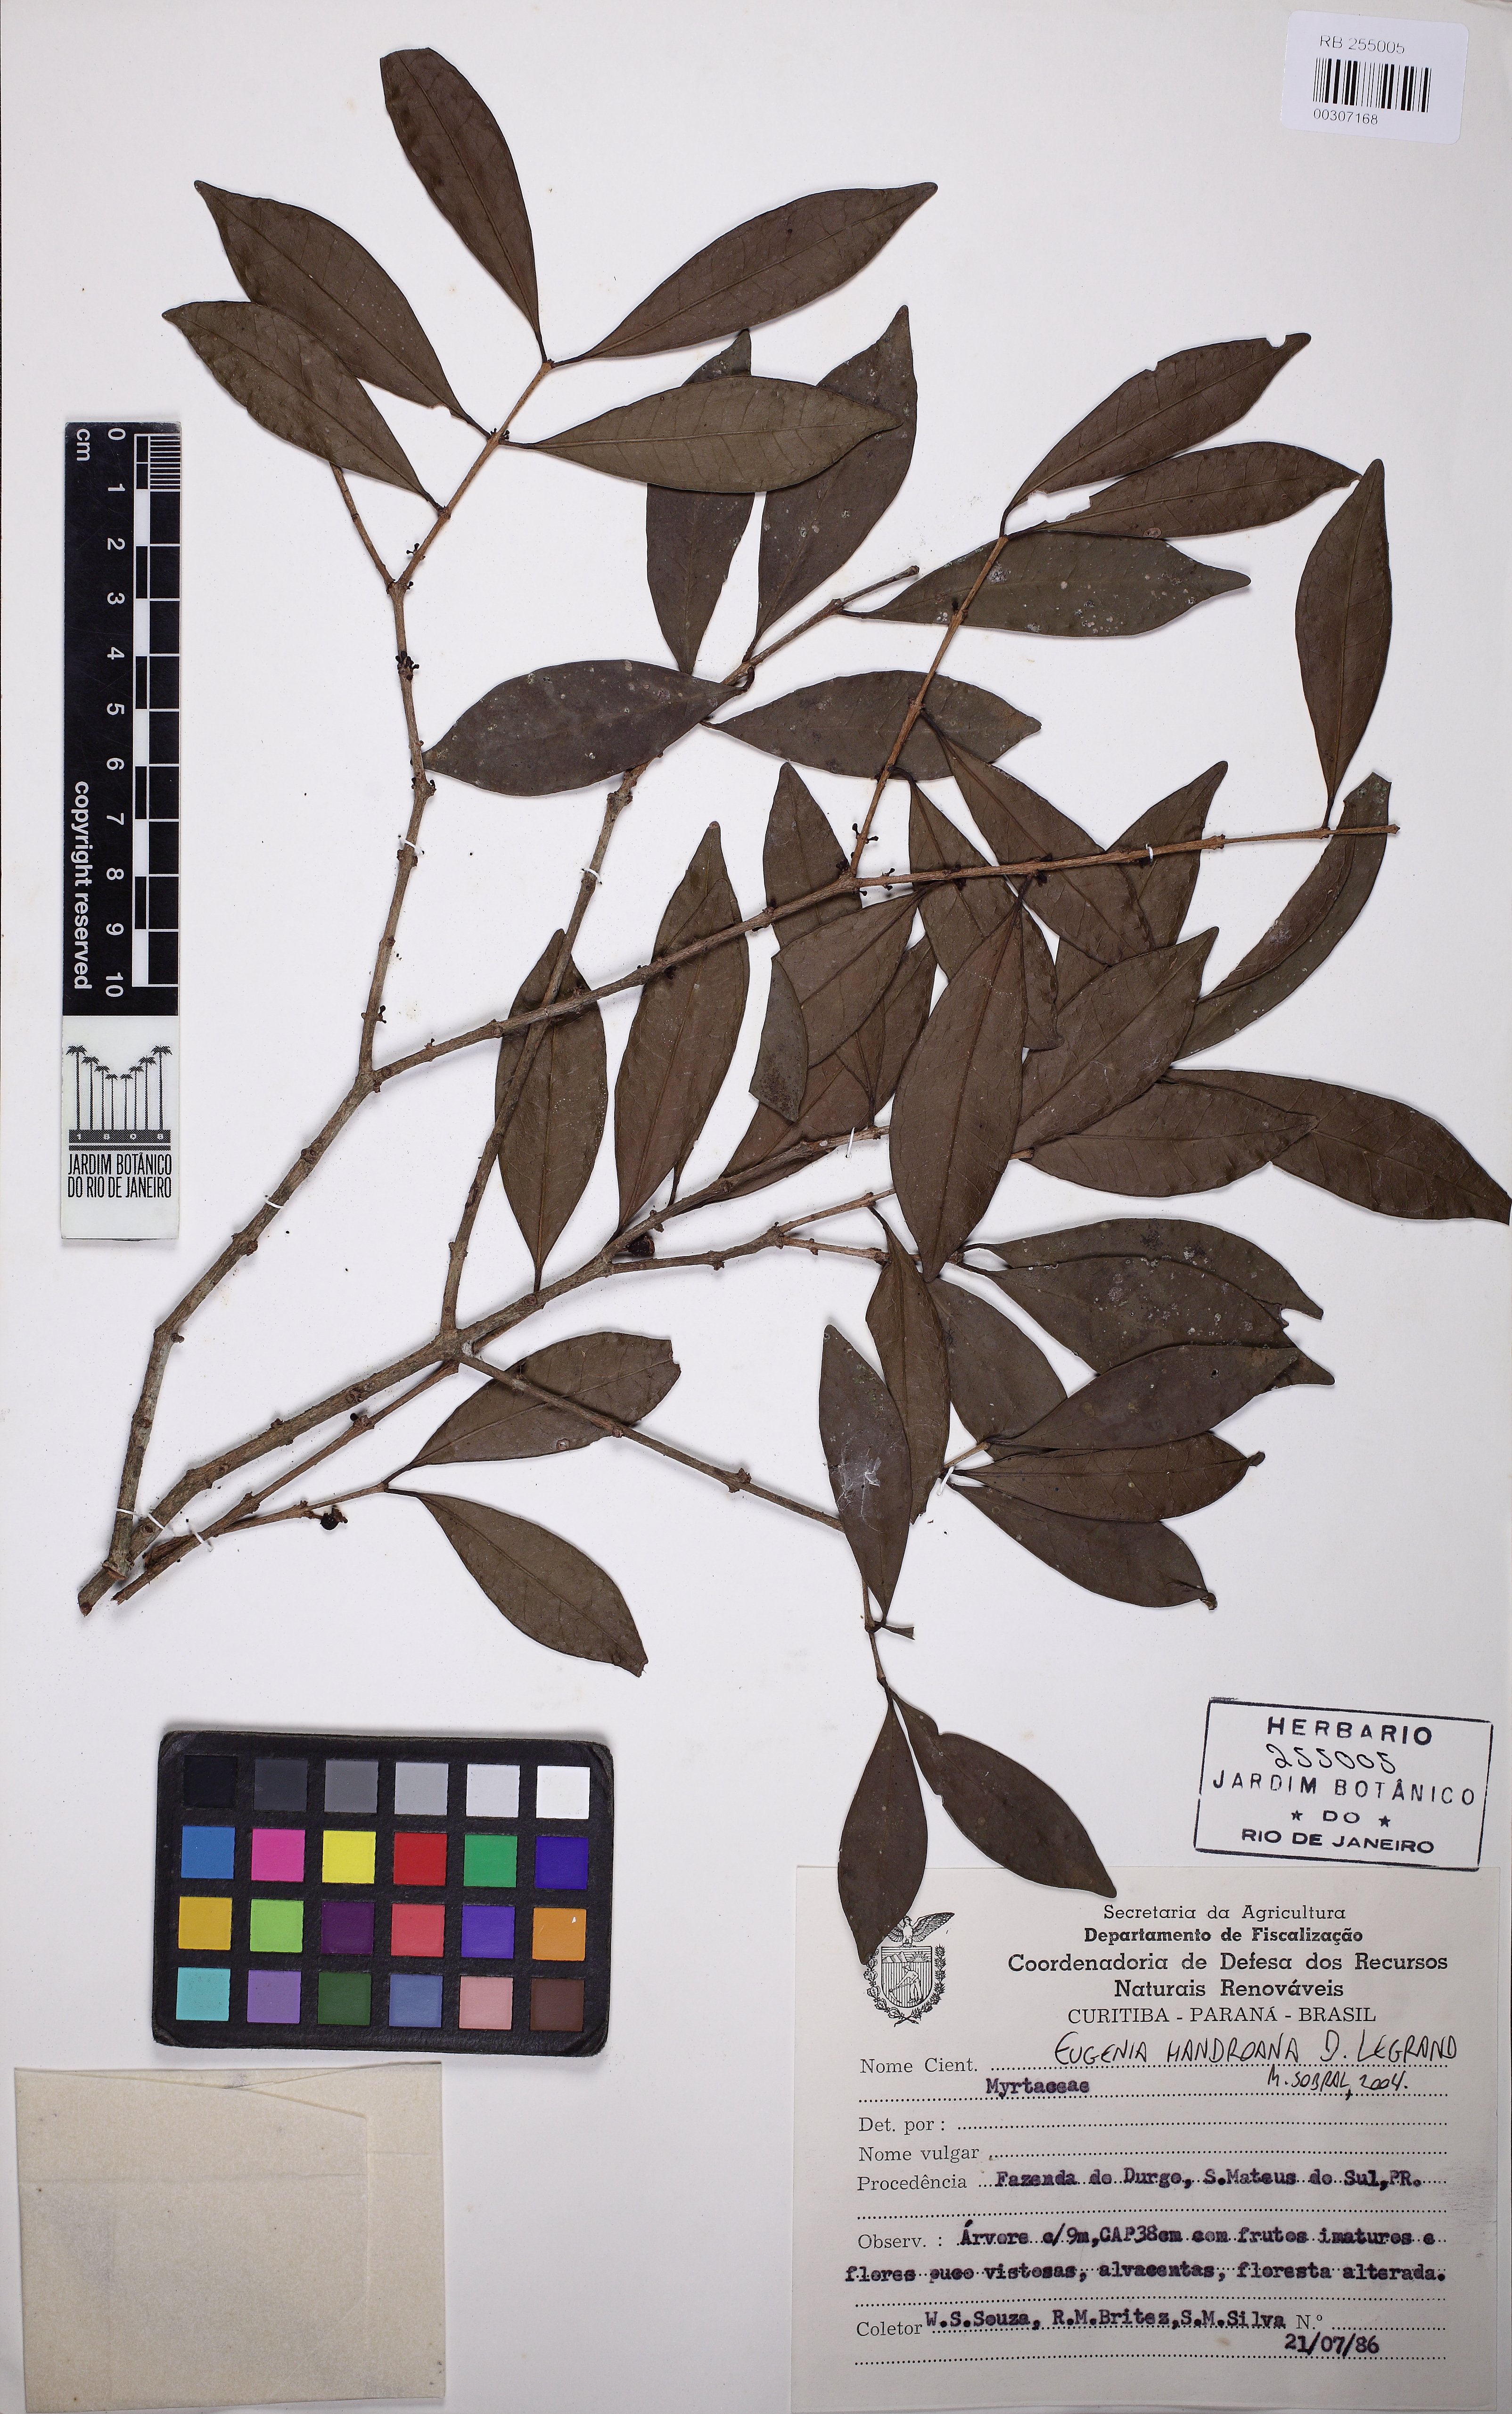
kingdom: Plantae
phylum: Tracheophyta
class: Magnoliopsida
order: Myrtales
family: Myrtaceae
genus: Eugenia
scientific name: Eugenia handroana
